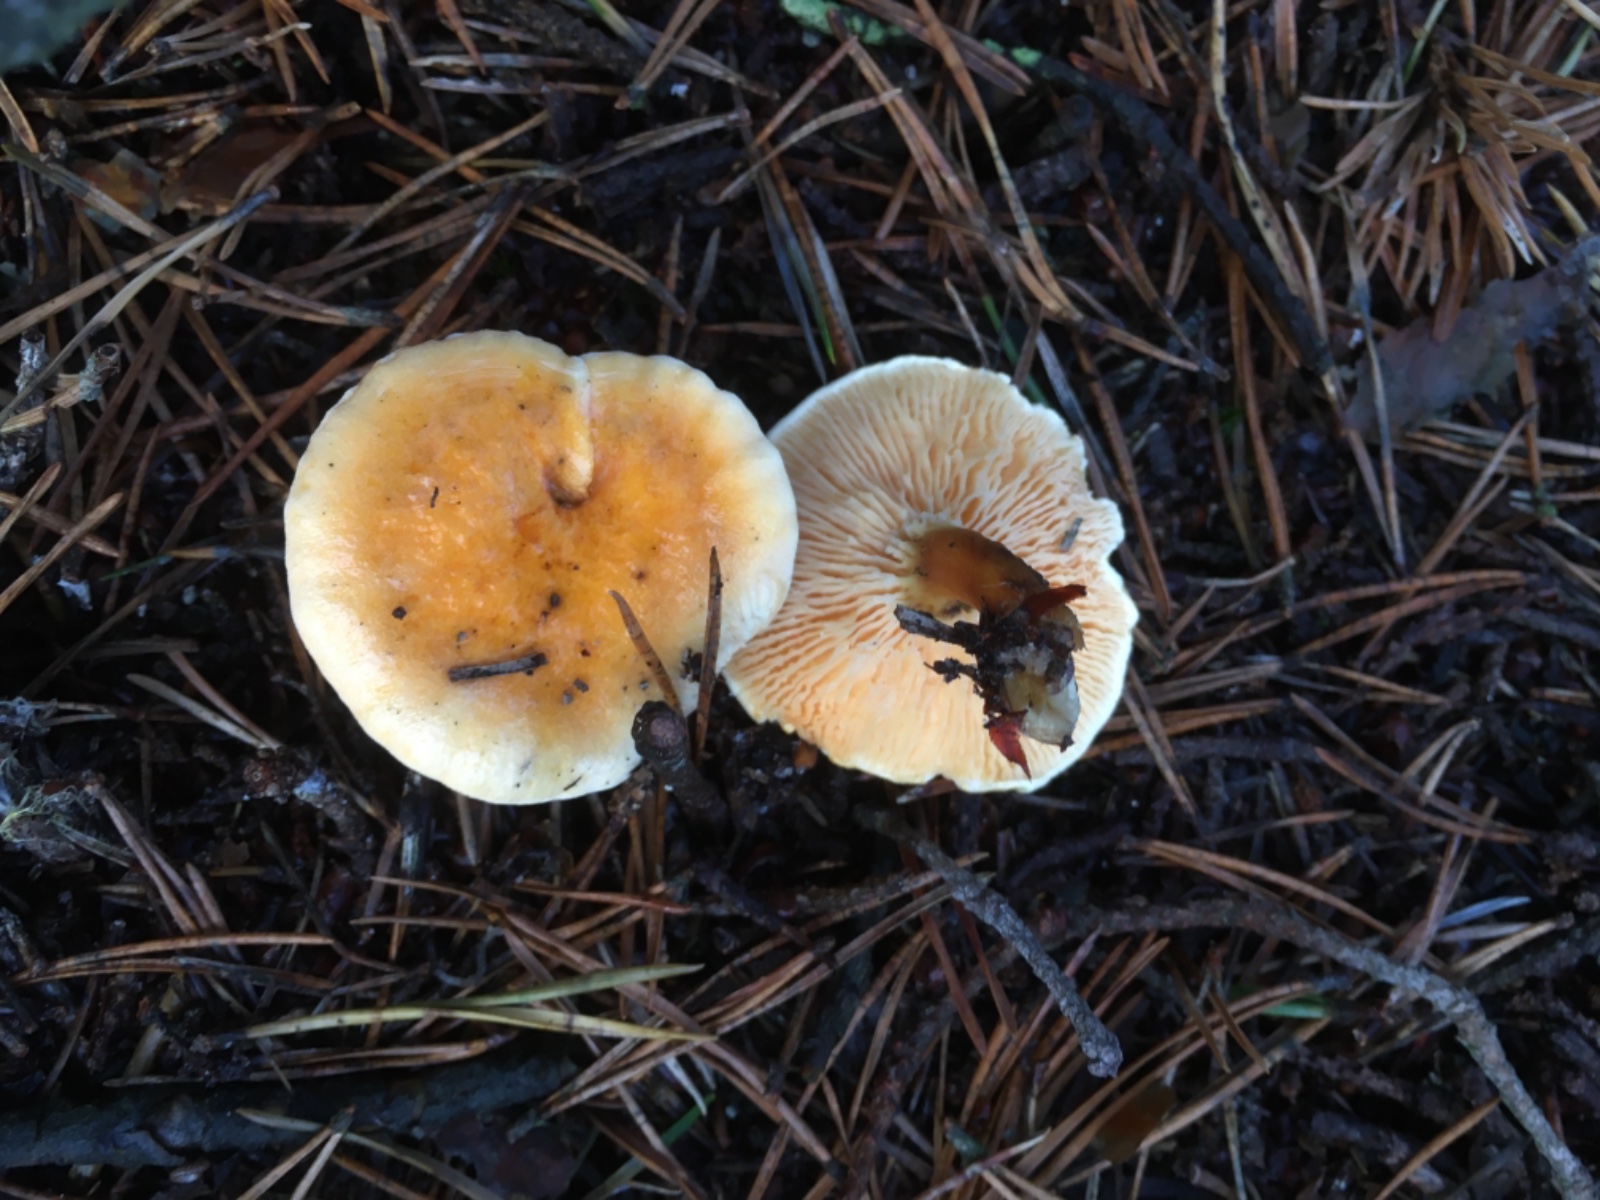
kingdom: Fungi
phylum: Basidiomycota
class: Agaricomycetes
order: Boletales
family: Hygrophoropsidaceae
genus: Hygrophoropsis
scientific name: Hygrophoropsis aurantiaca
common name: almindelig orangekantarel
